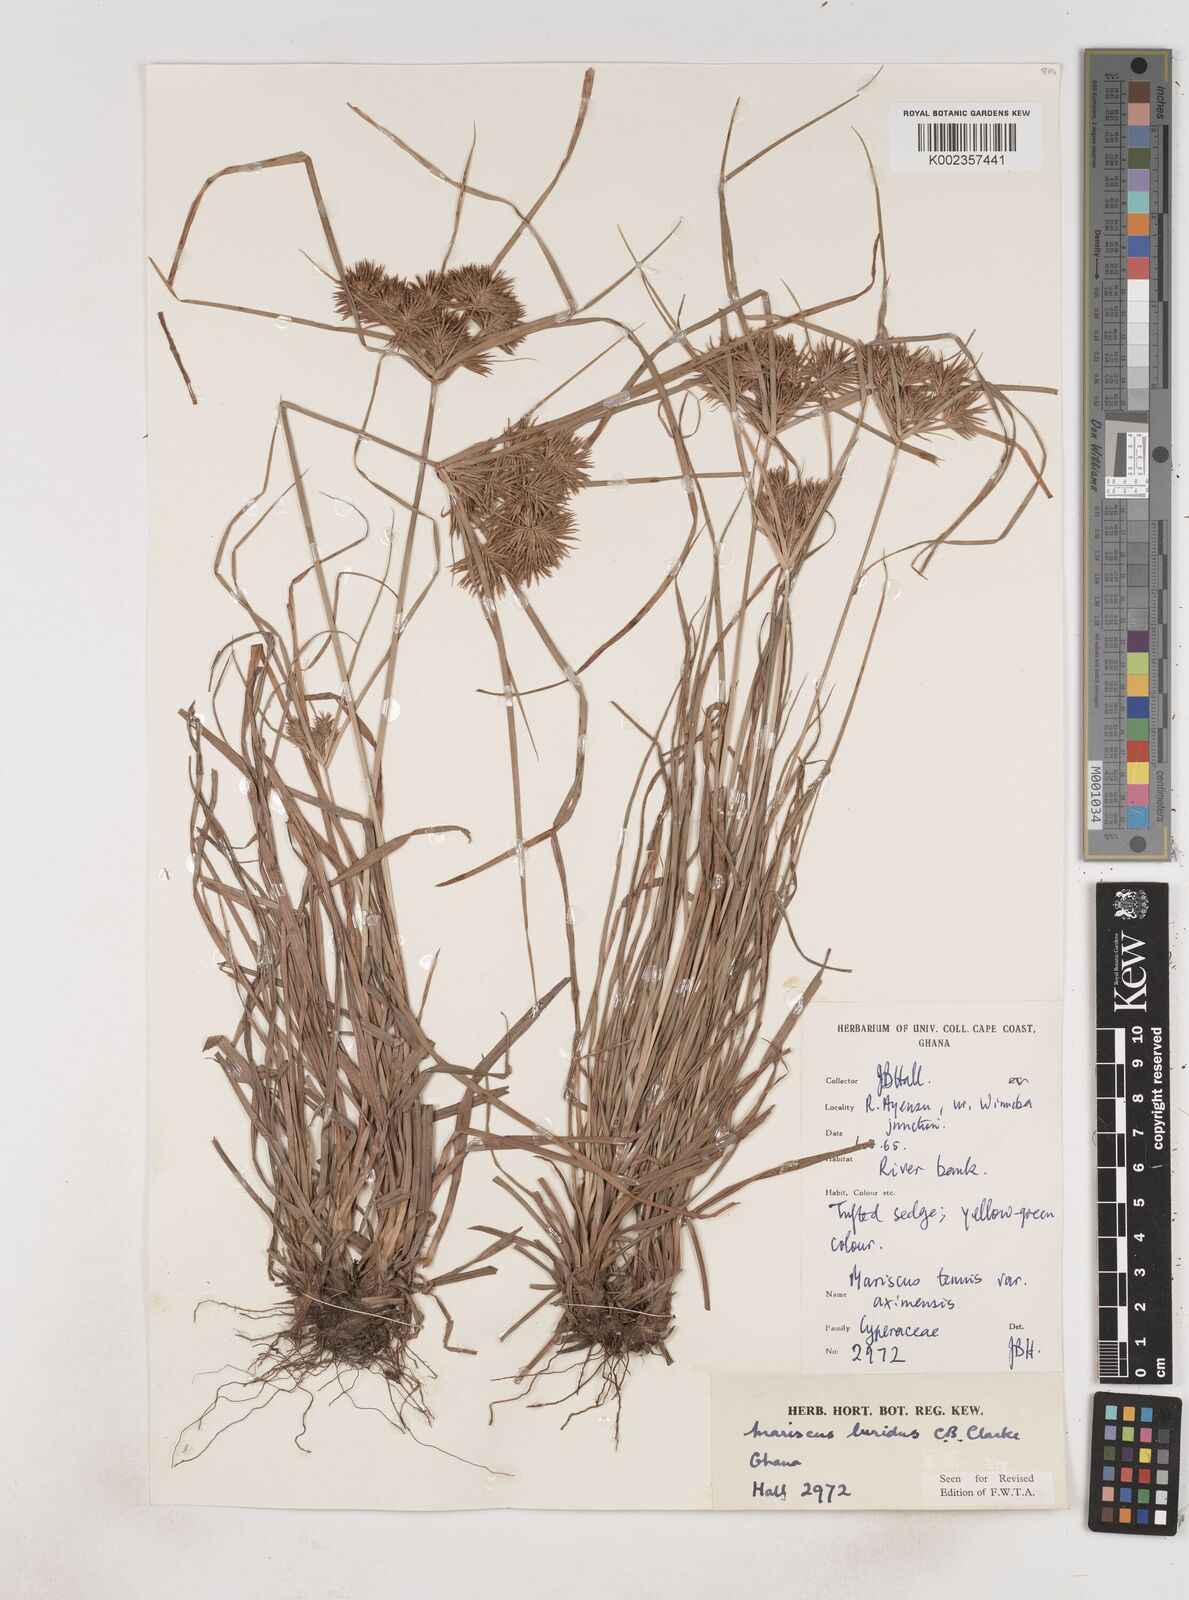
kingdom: Plantae
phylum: Tracheophyta
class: Liliopsida
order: Poales
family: Cyperaceae
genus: Cyperus
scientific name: Cyperus tenuis
